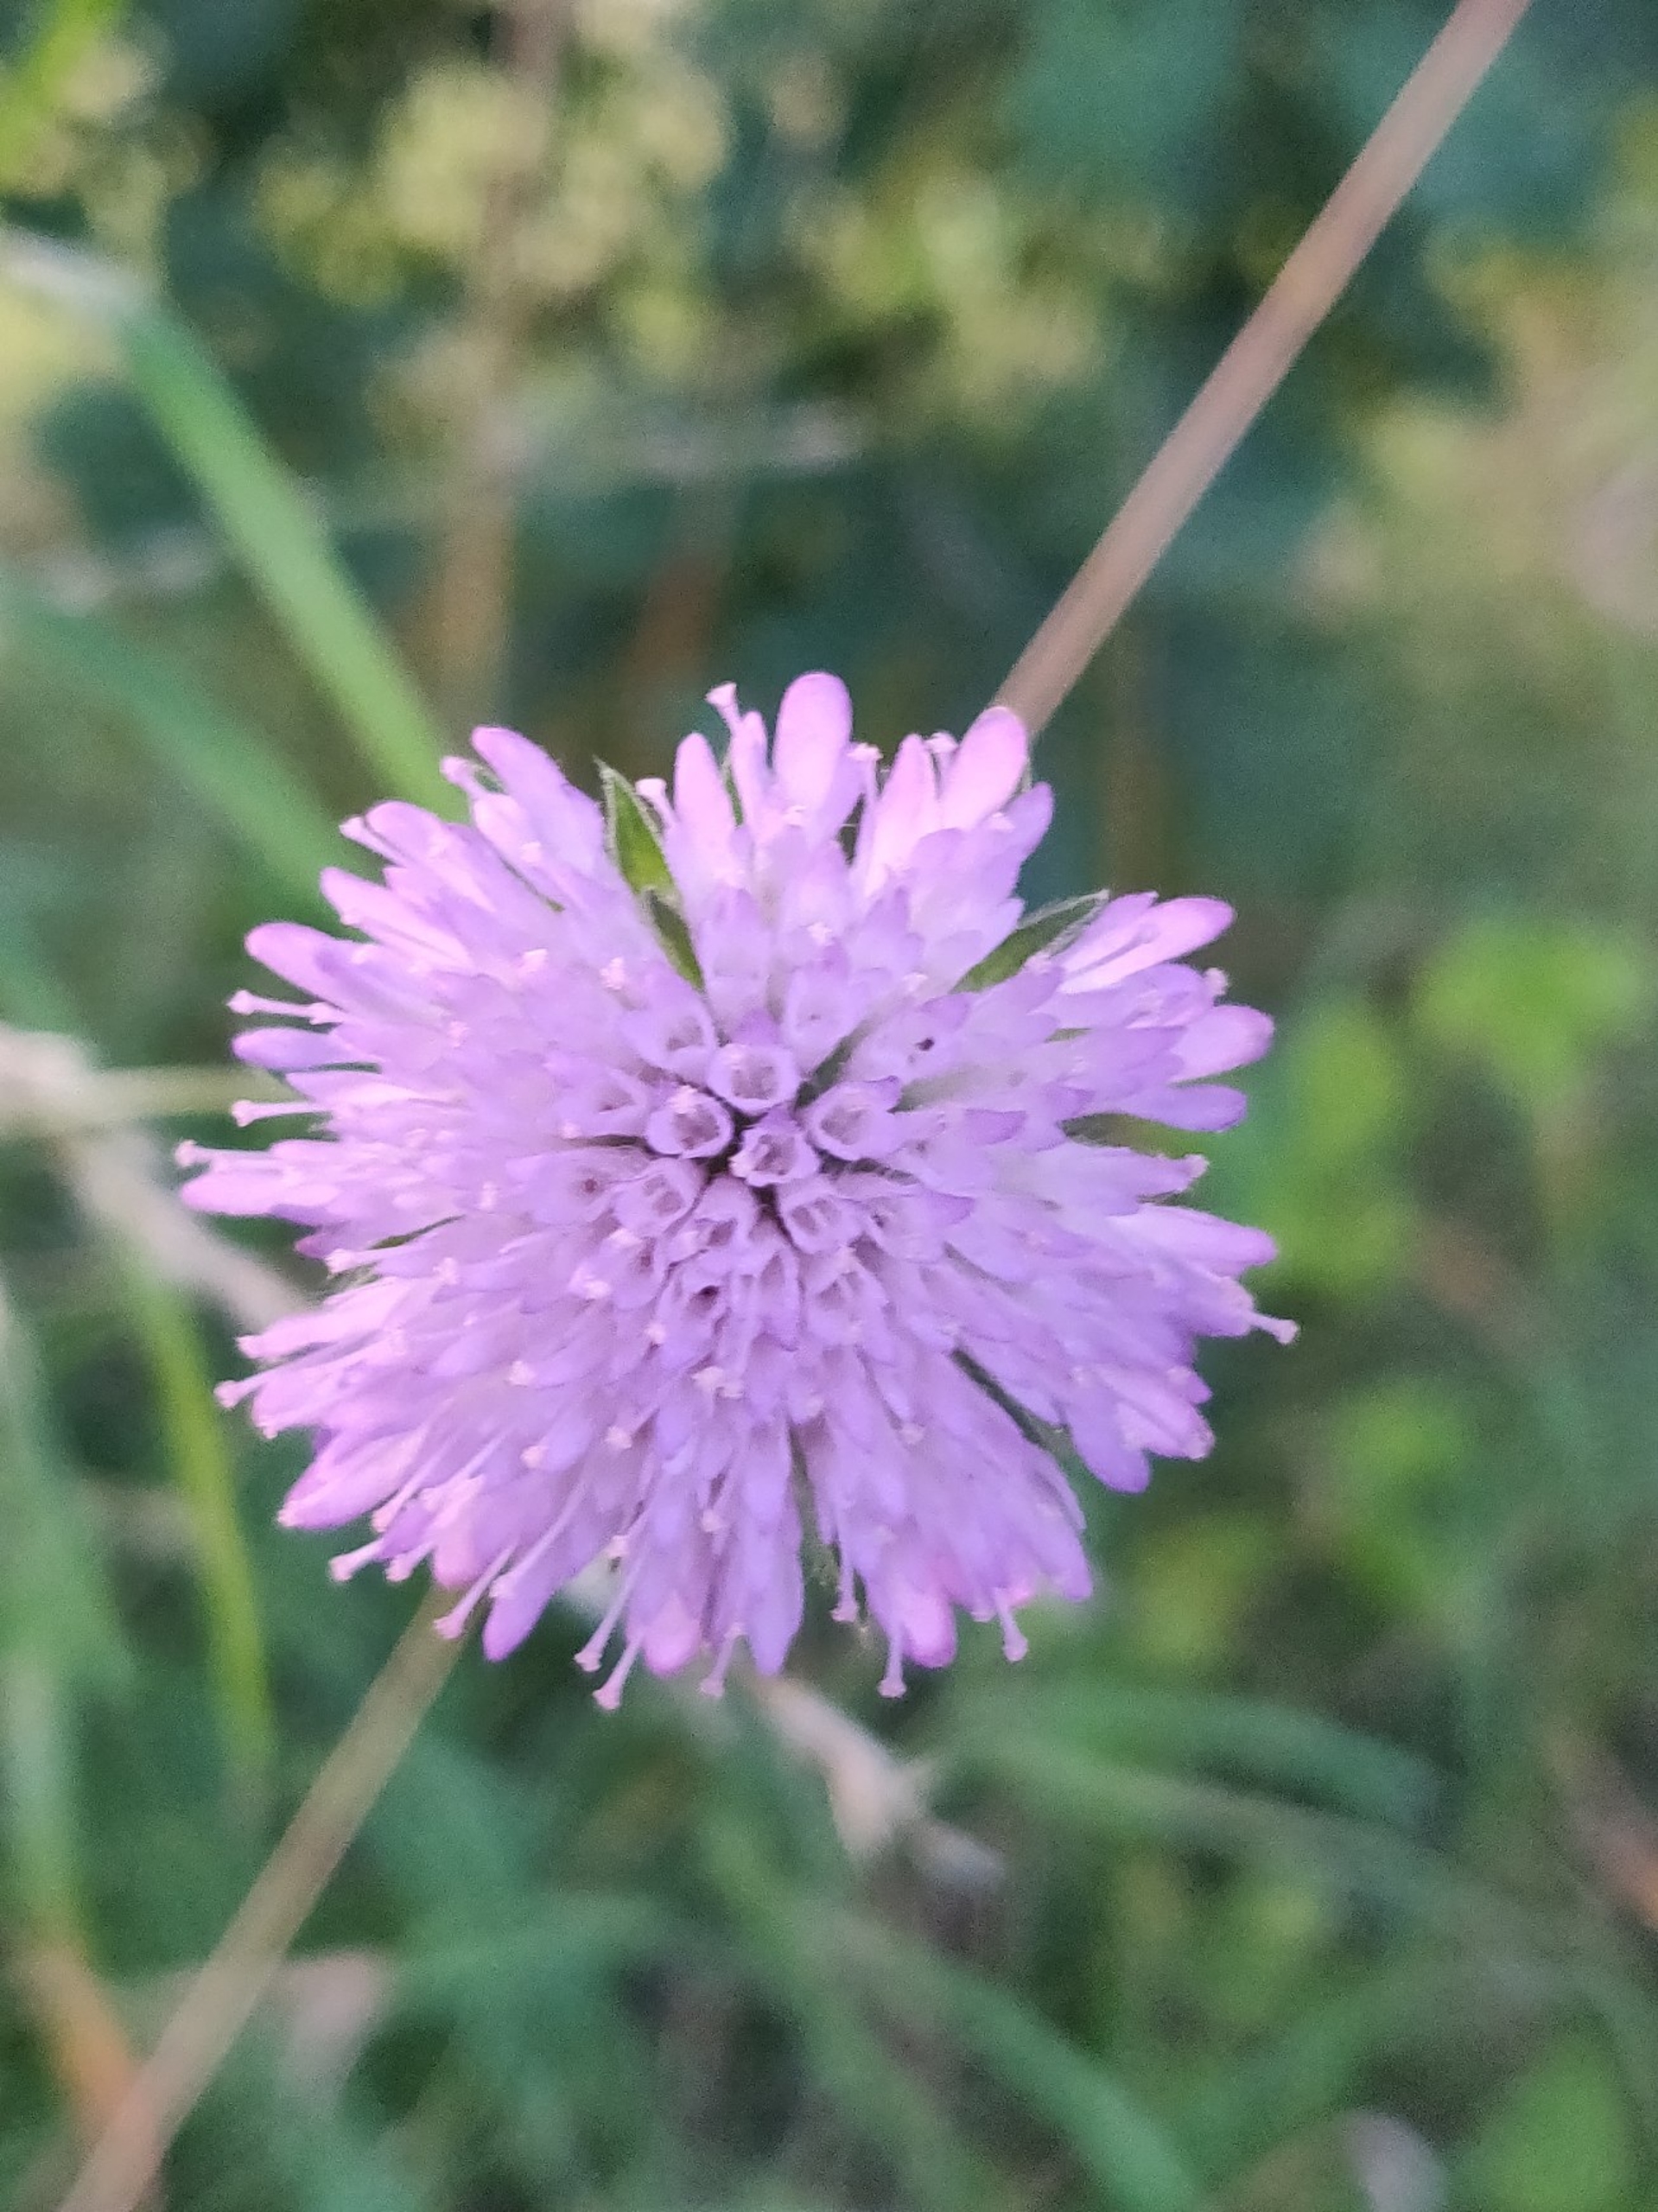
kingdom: Plantae
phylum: Tracheophyta
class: Magnoliopsida
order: Dipsacales
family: Caprifoliaceae
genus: Knautia
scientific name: Knautia arvensis
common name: Blåhat
